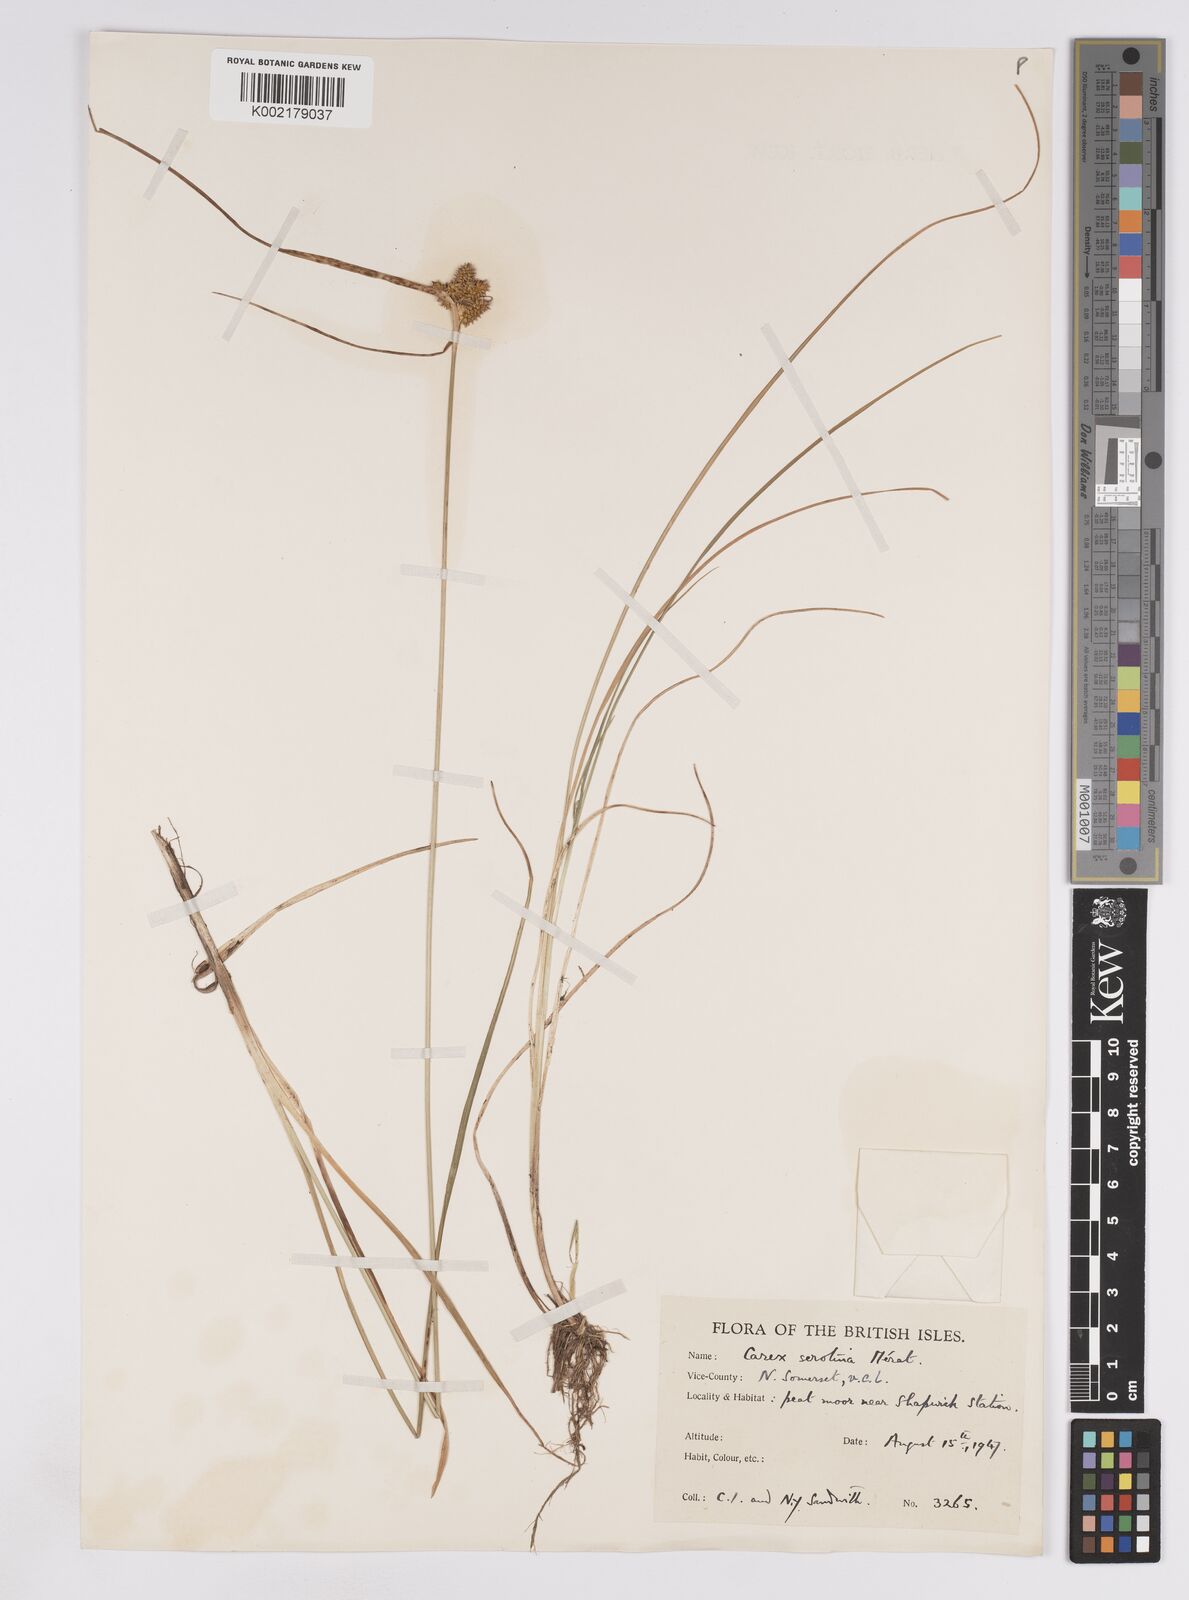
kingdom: Plantae
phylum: Tracheophyta
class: Liliopsida
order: Poales
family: Cyperaceae
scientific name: Cyperaceae
